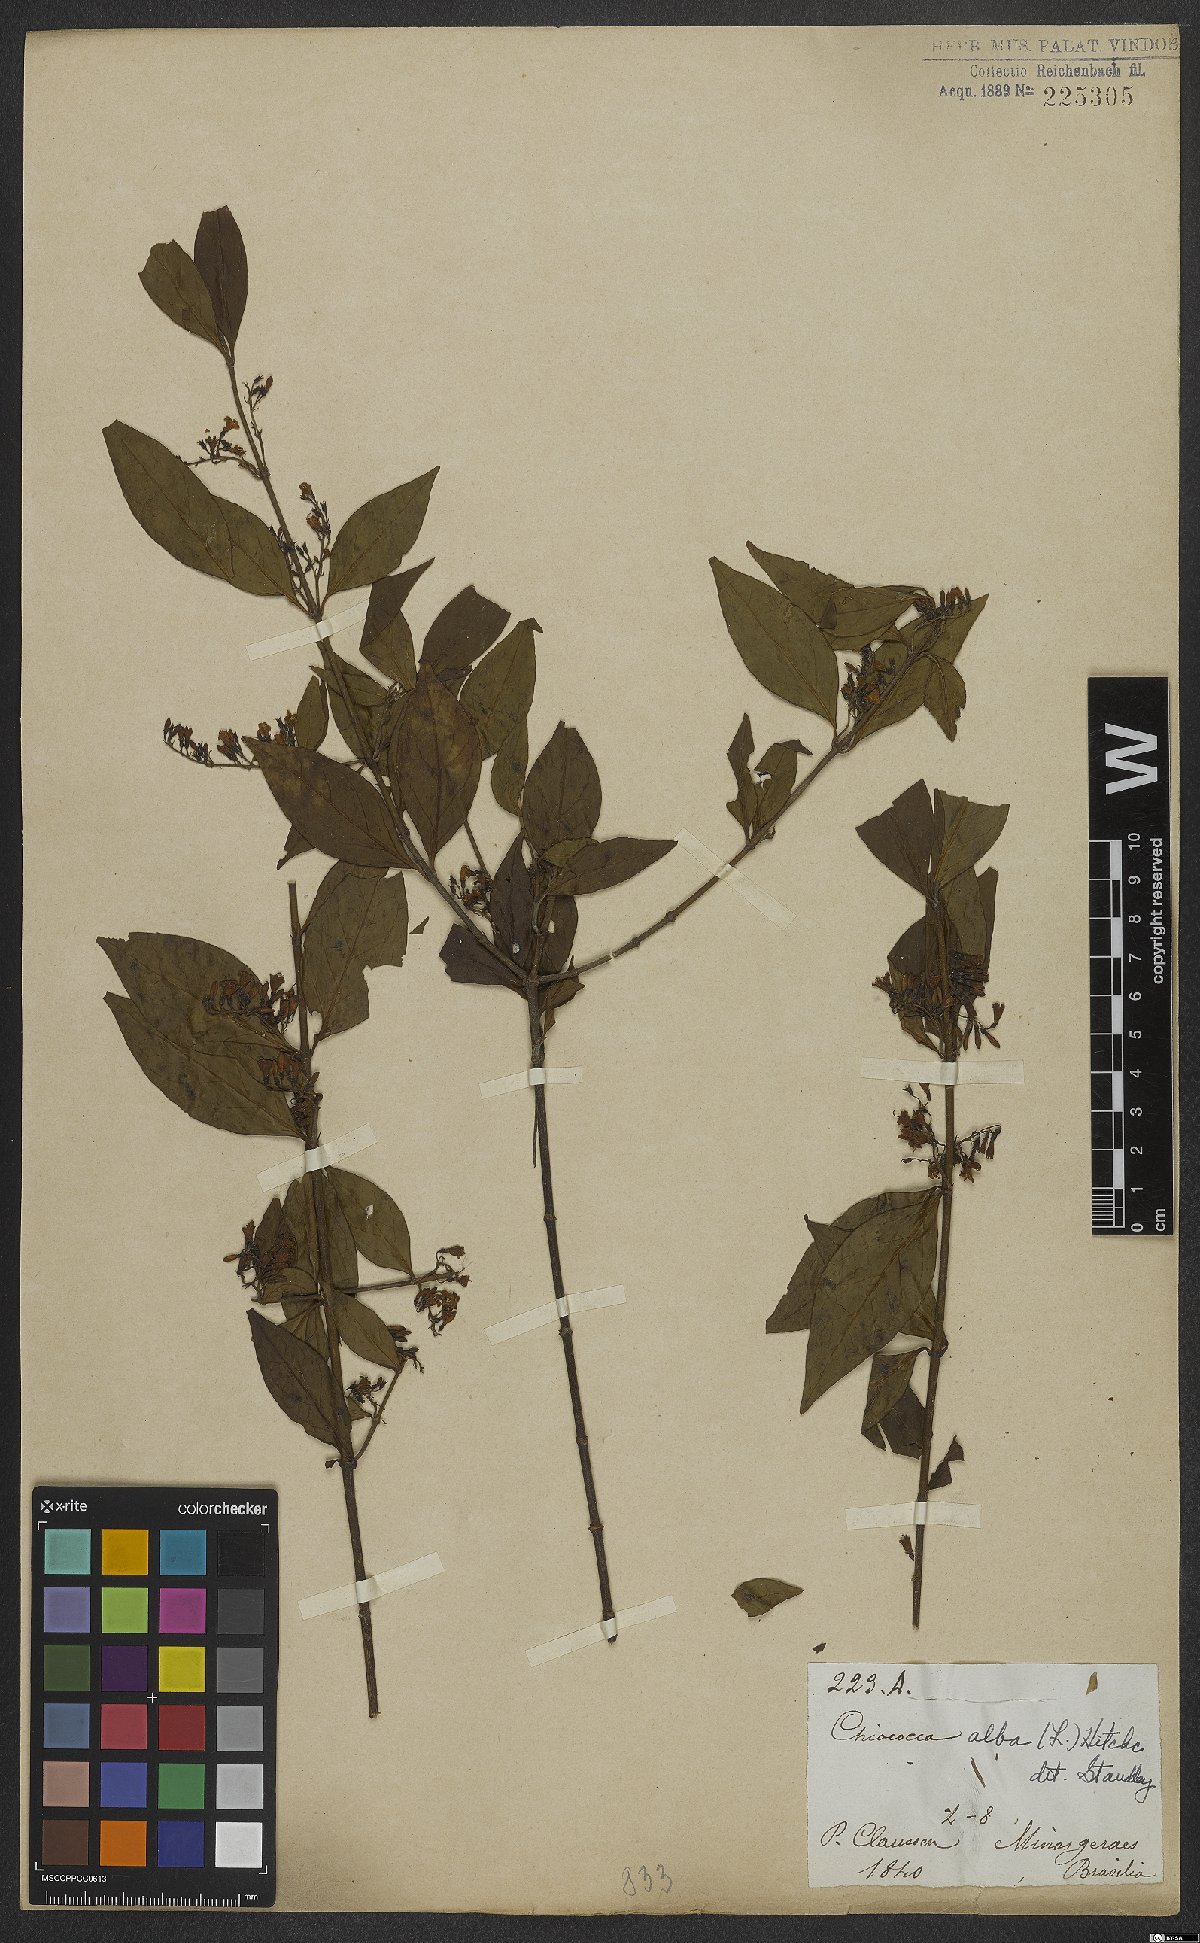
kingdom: Plantae
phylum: Tracheophyta
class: Magnoliopsida
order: Gentianales
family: Rubiaceae
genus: Chiococca
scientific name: Chiococca alba
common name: Snowberry
